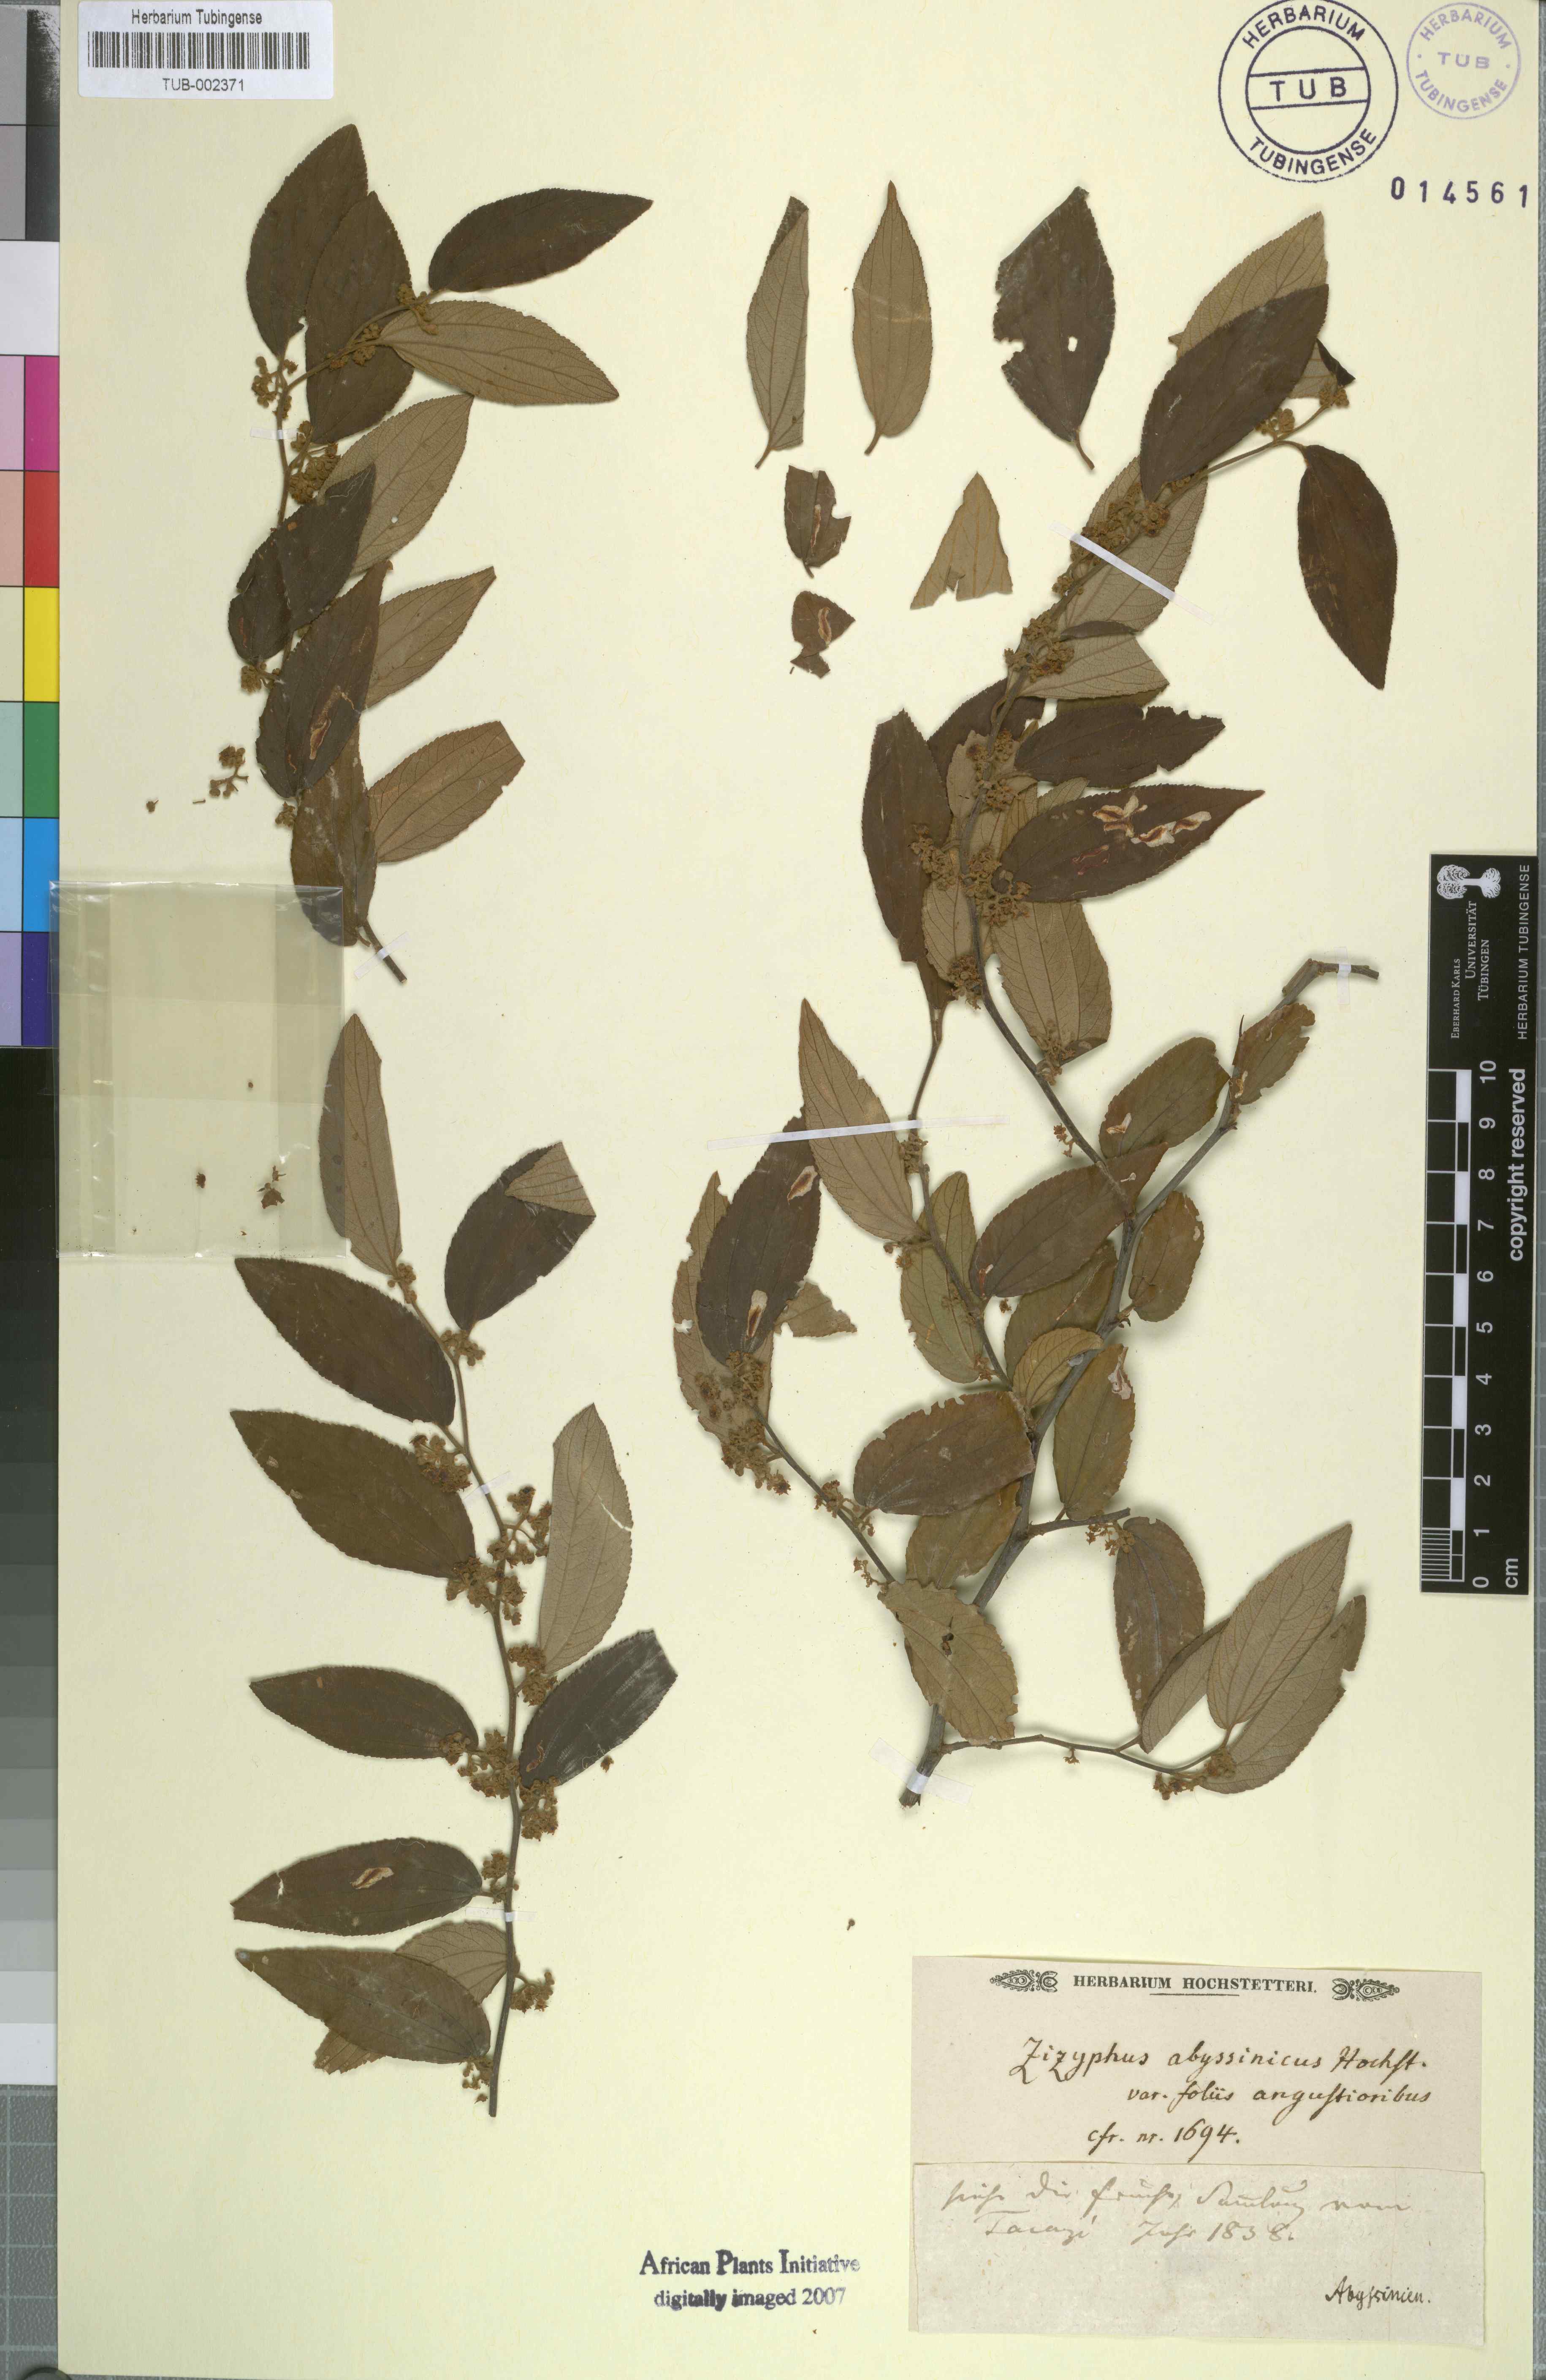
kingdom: Plantae
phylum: Tracheophyta
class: Magnoliopsida
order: Rosales
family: Rhamnaceae
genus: Ziziphus
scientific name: Ziziphus jujuba
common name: Jujube red date
